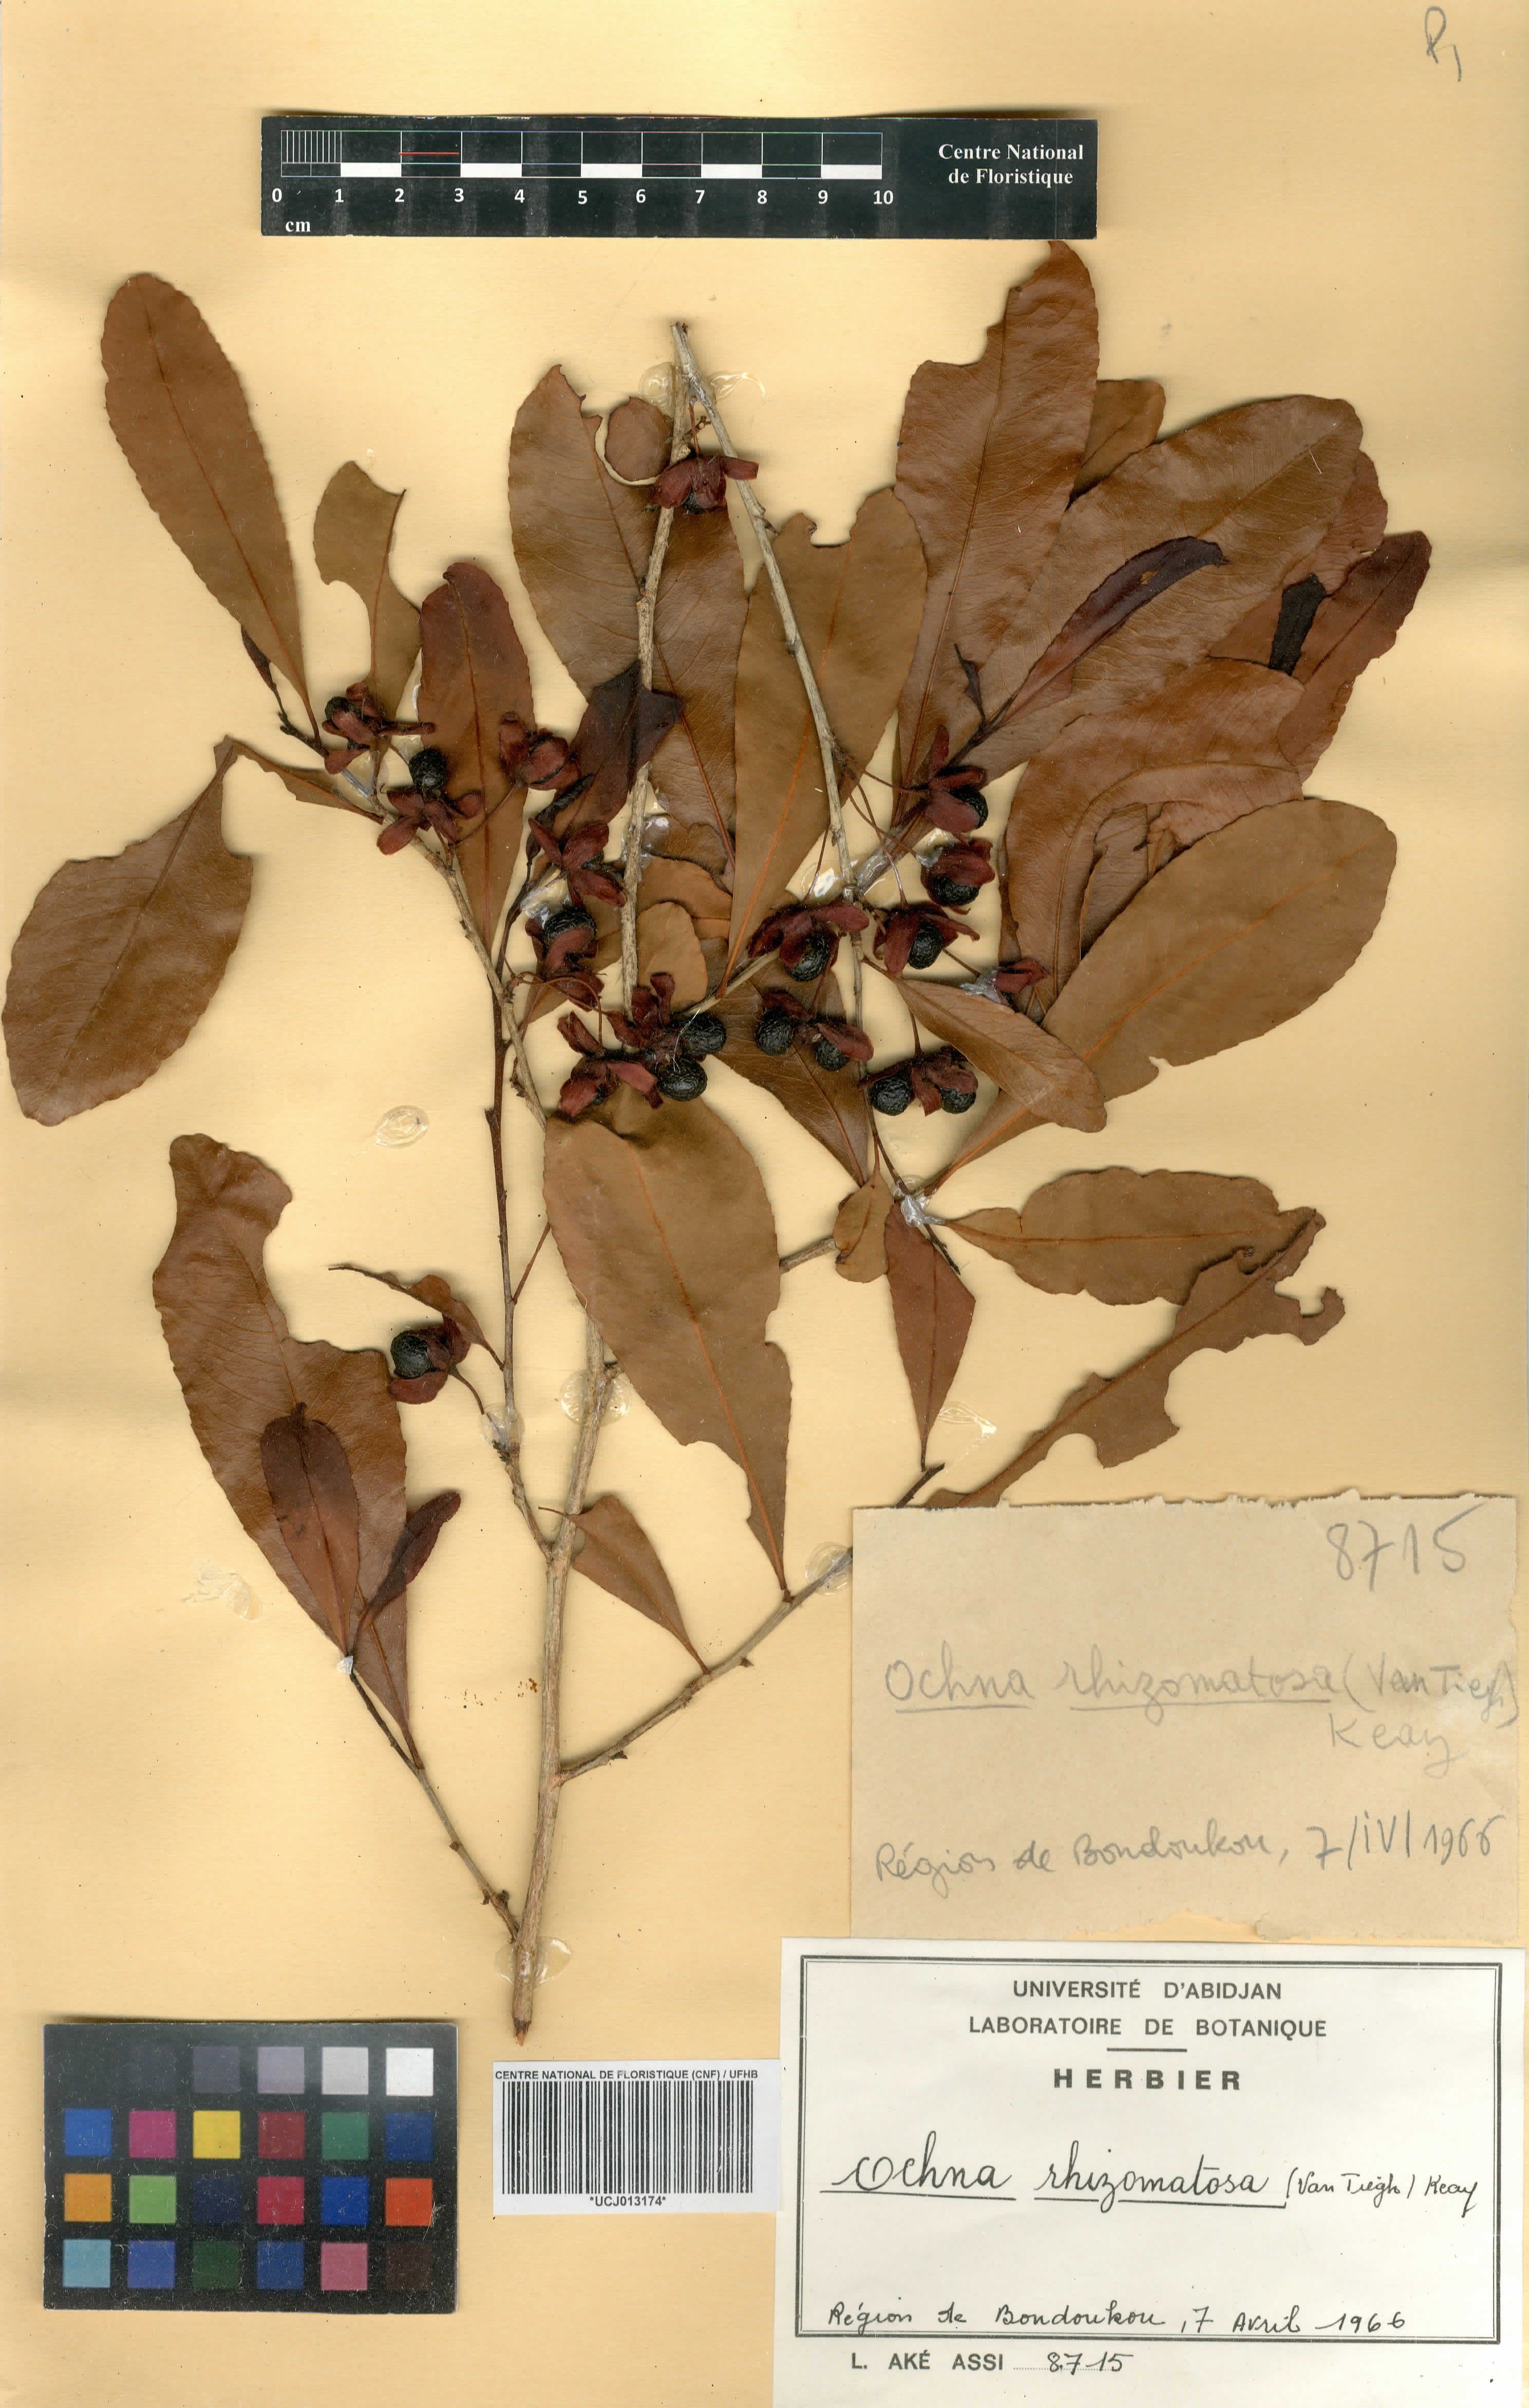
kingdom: Plantae
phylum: Tracheophyta
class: Magnoliopsida
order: Malpighiales
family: Ochnaceae
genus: Ochna
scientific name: Ochna rhizomatosa
